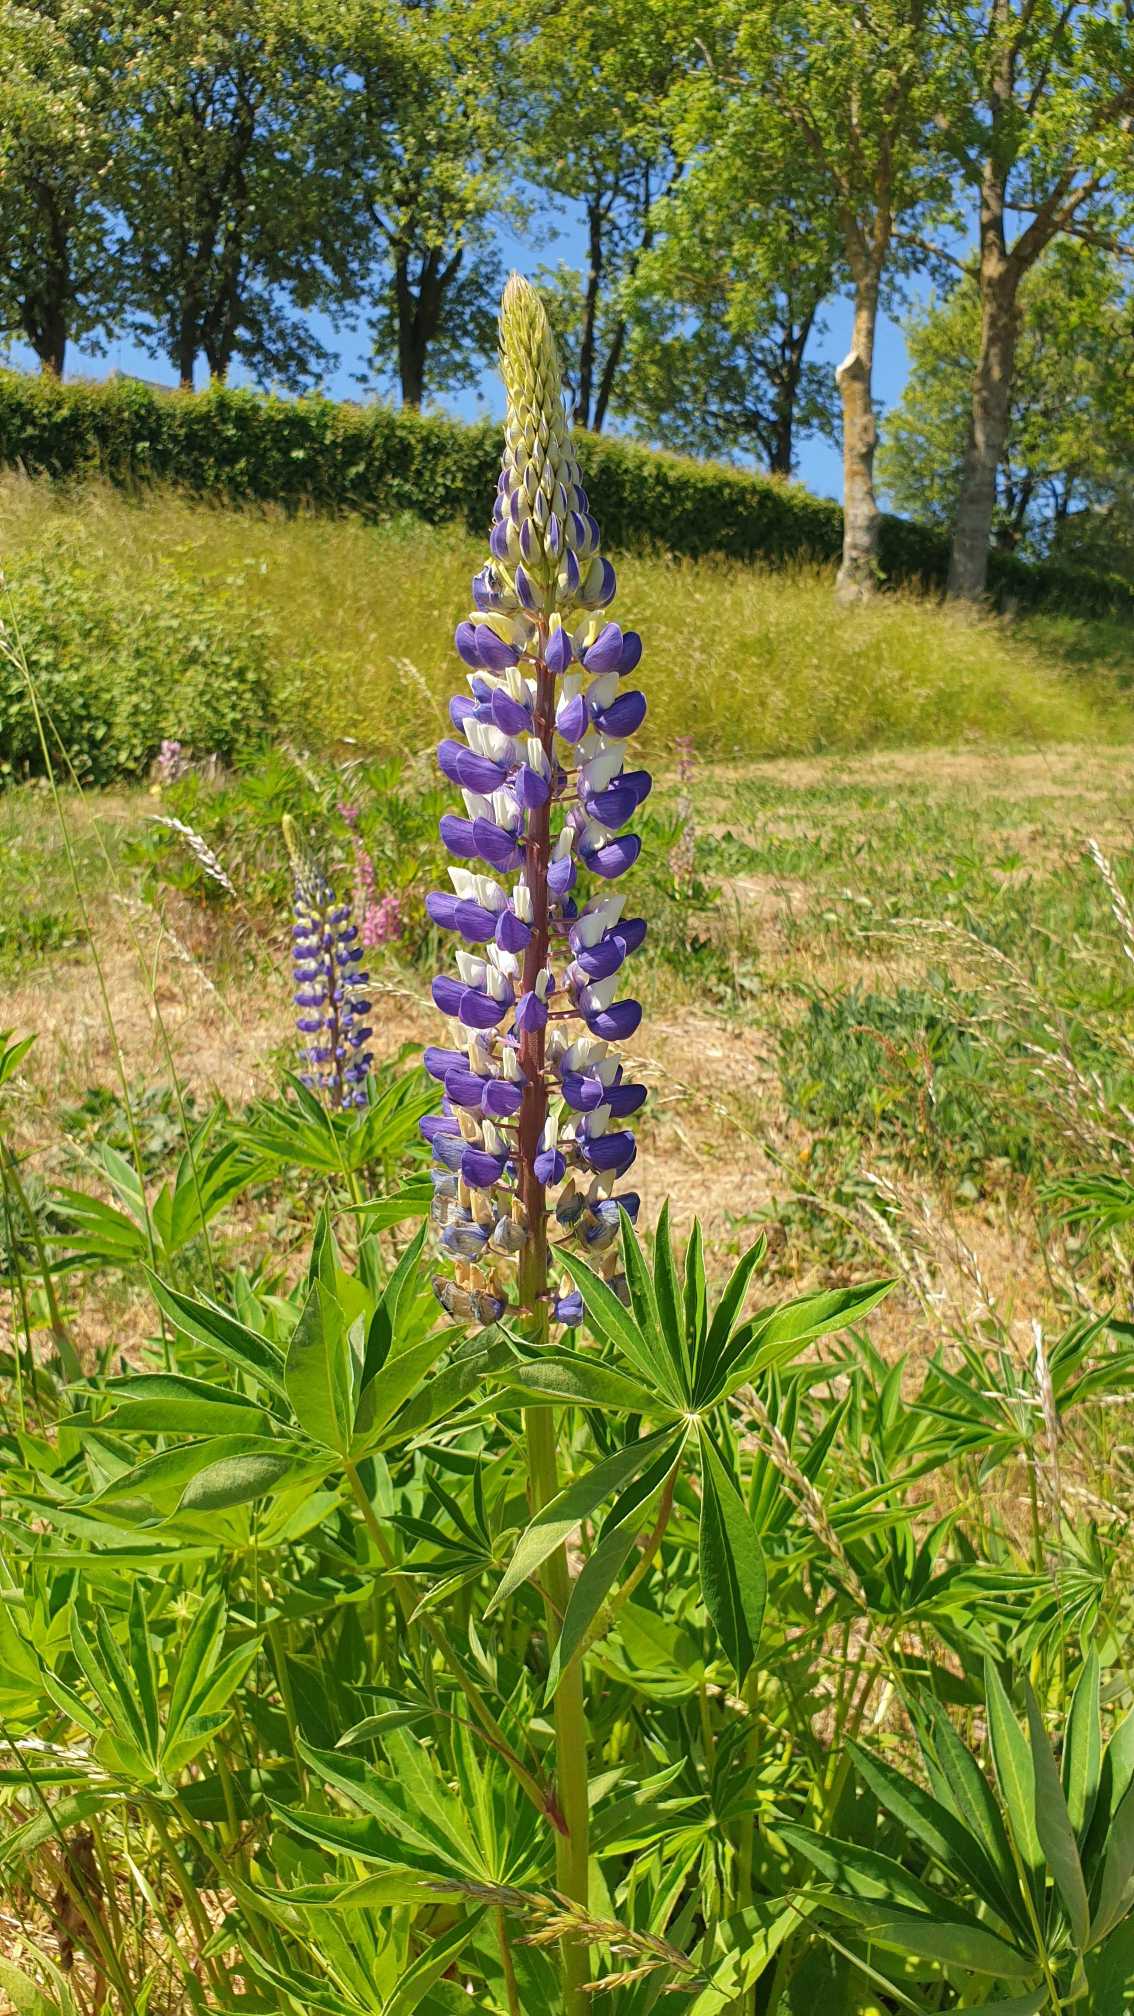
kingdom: Plantae
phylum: Tracheophyta
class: Magnoliopsida
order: Fabales
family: Fabaceae
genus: Lupinus
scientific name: Lupinus polyphyllus
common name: Mangebladet lupin
